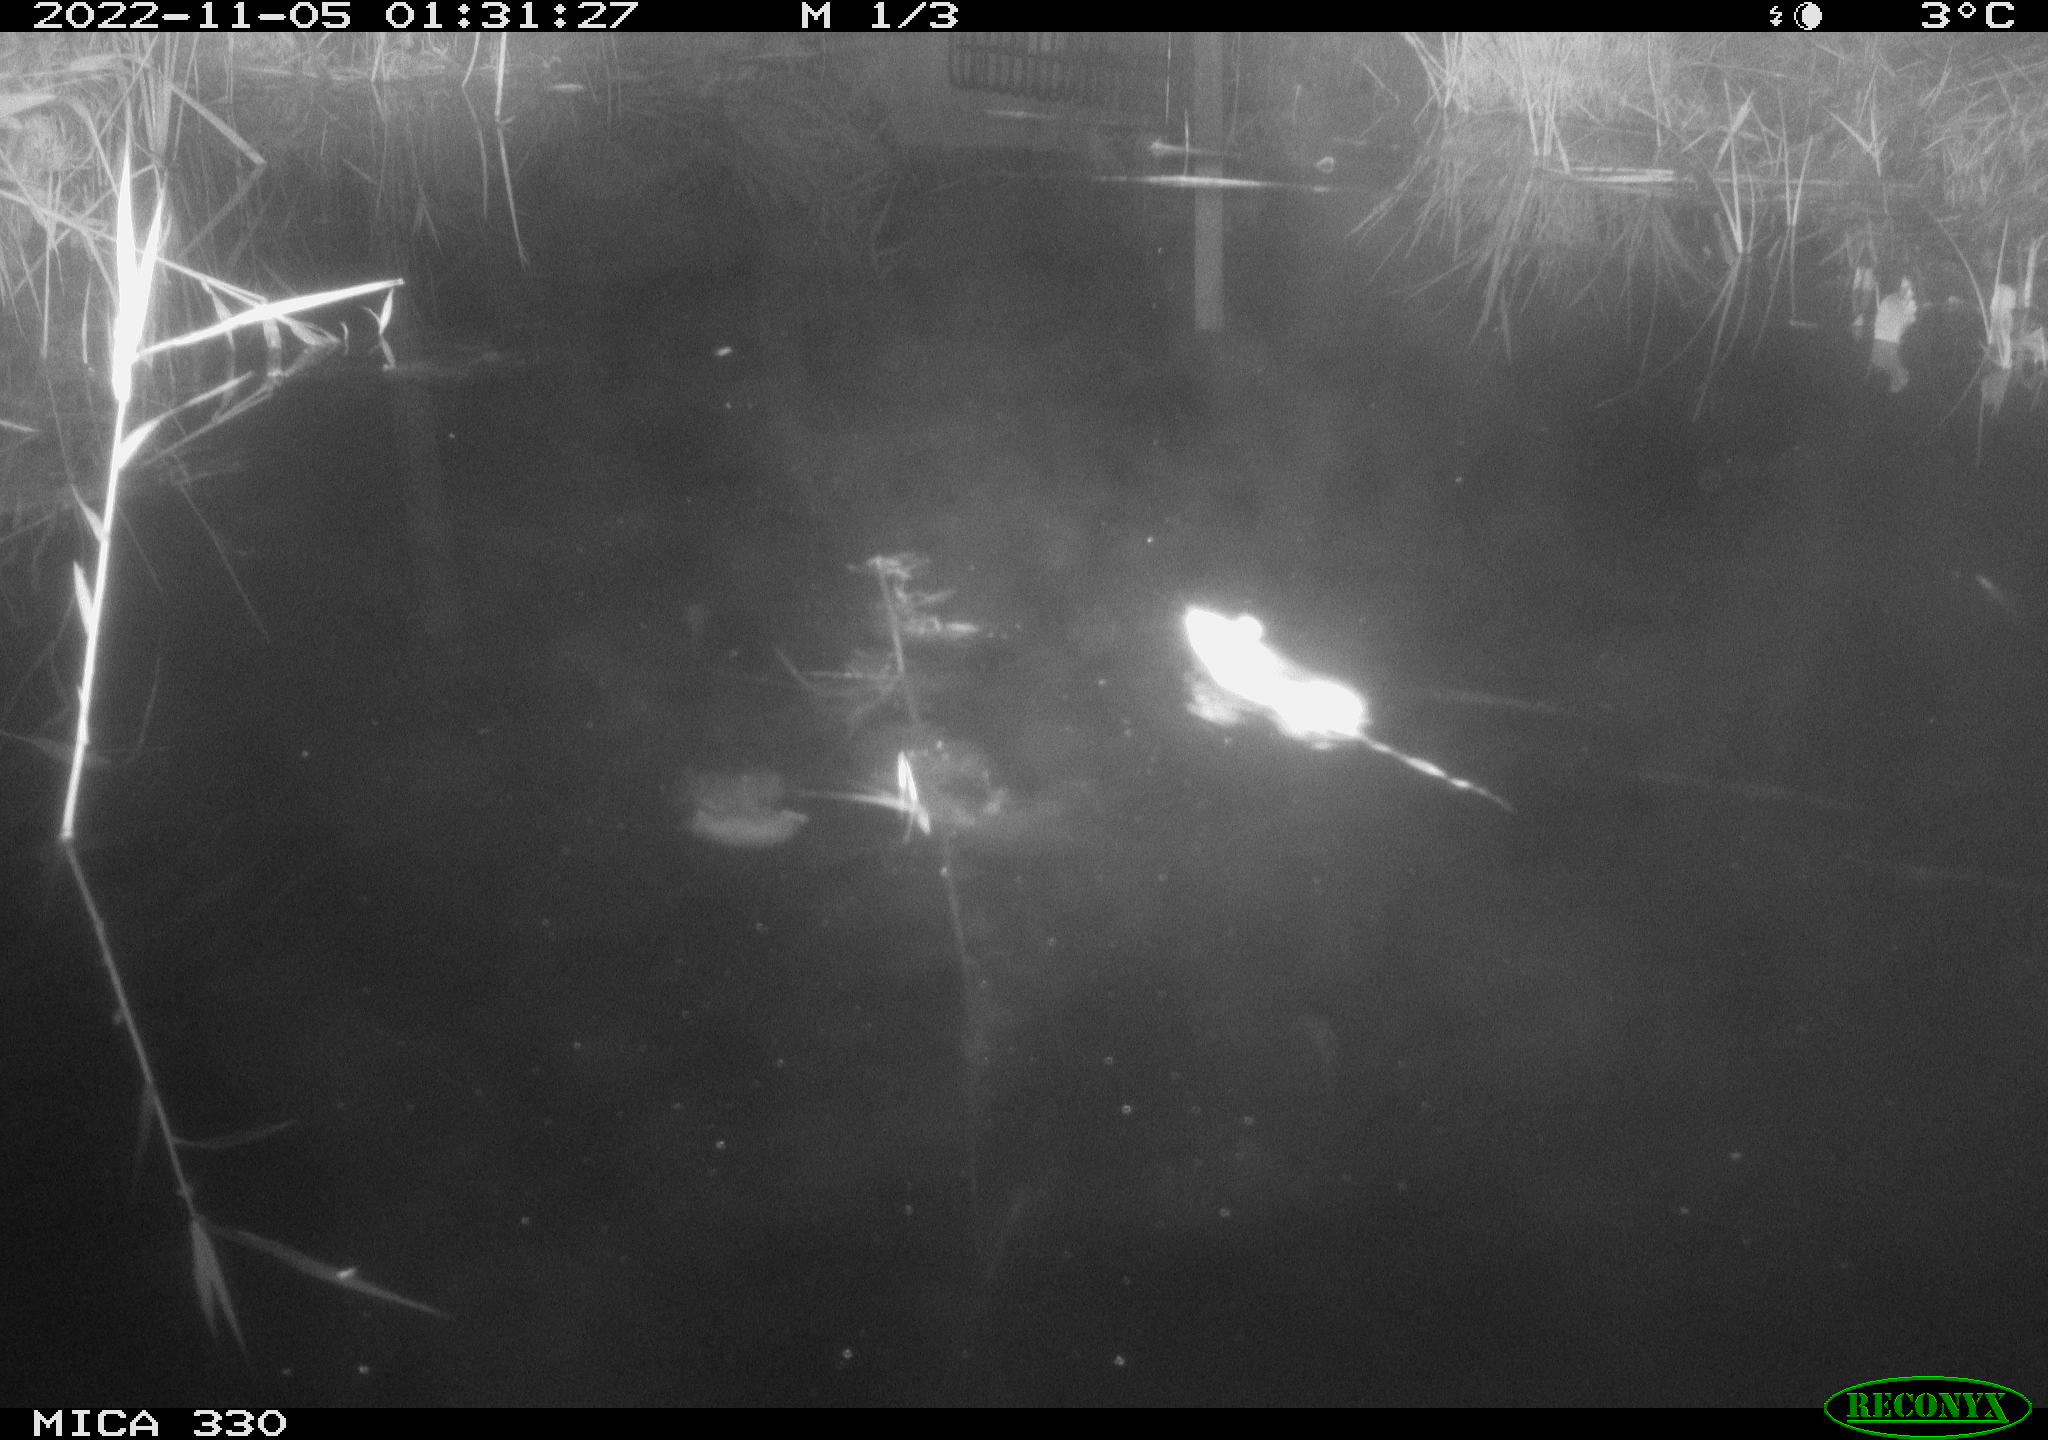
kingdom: Animalia
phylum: Chordata
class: Mammalia
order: Rodentia
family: Muridae
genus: Rattus
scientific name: Rattus norvegicus
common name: Brown rat
